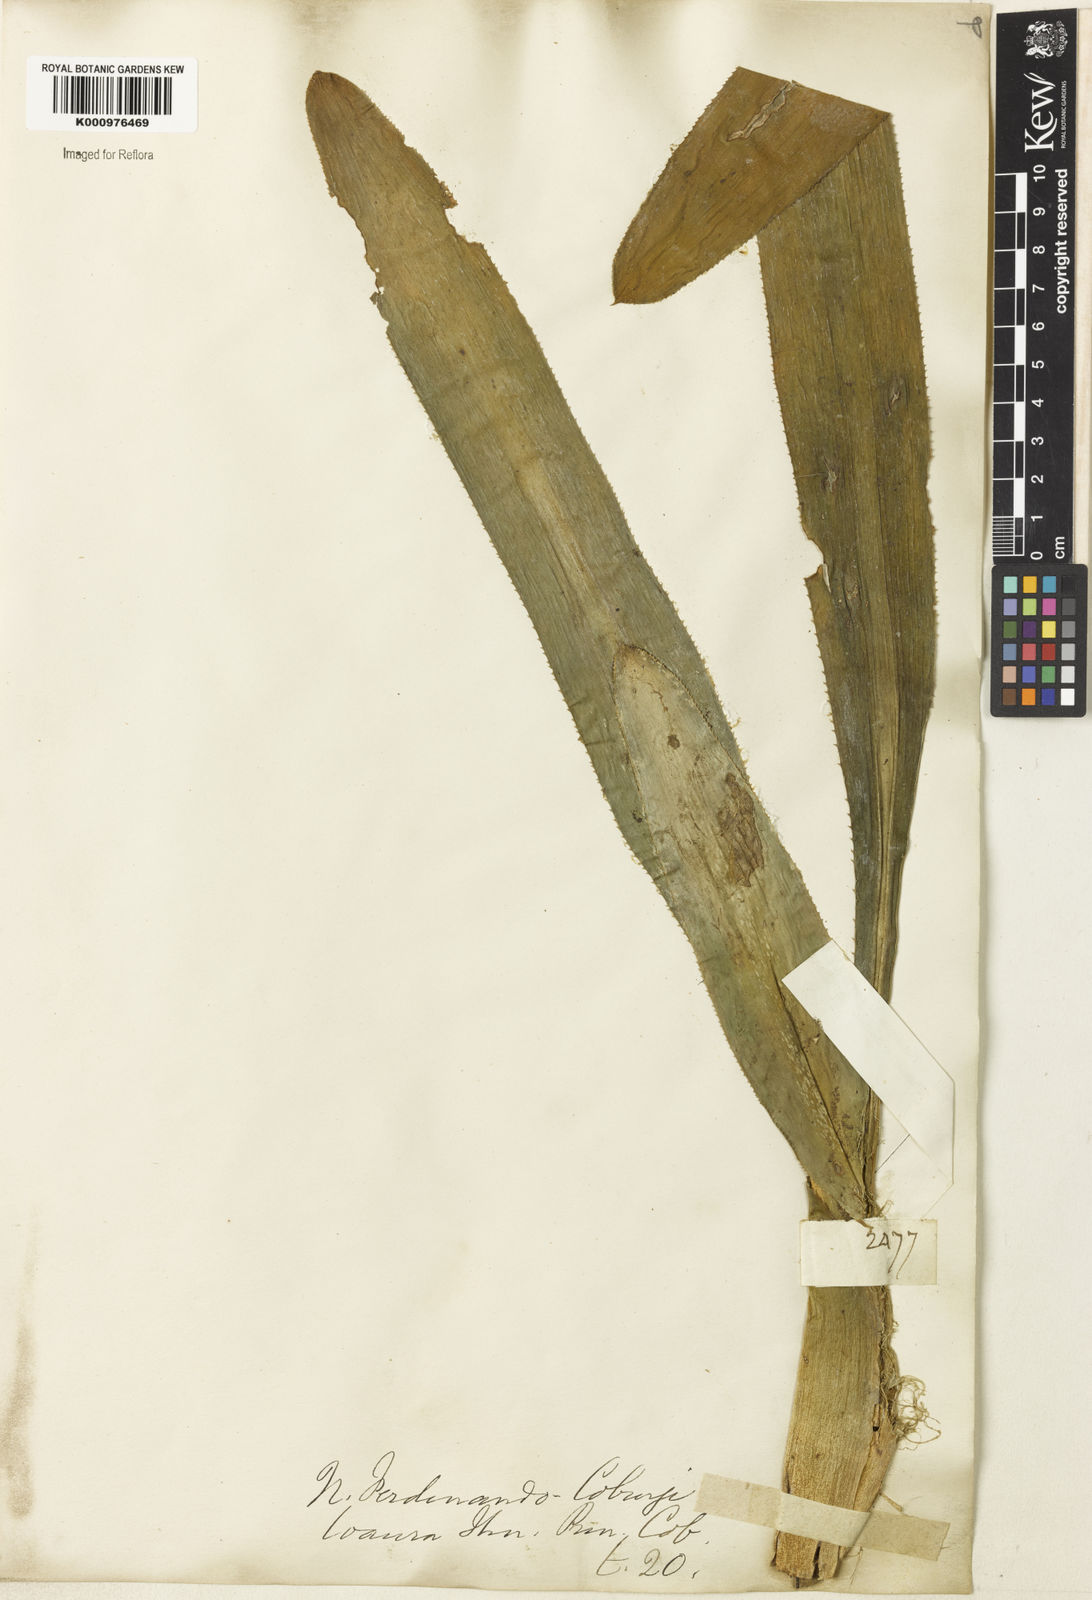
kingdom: Plantae
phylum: Tracheophyta
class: Liliopsida
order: Poales
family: Bromeliaceae
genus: Nidularium
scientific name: Nidularium ferdinando-coburgii
